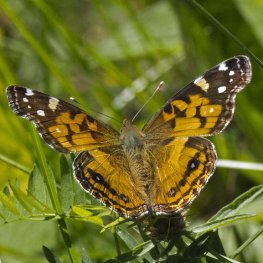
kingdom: Animalia
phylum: Arthropoda
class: Insecta
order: Lepidoptera
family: Nymphalidae
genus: Vanessa
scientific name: Vanessa virginiensis
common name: American Lady
